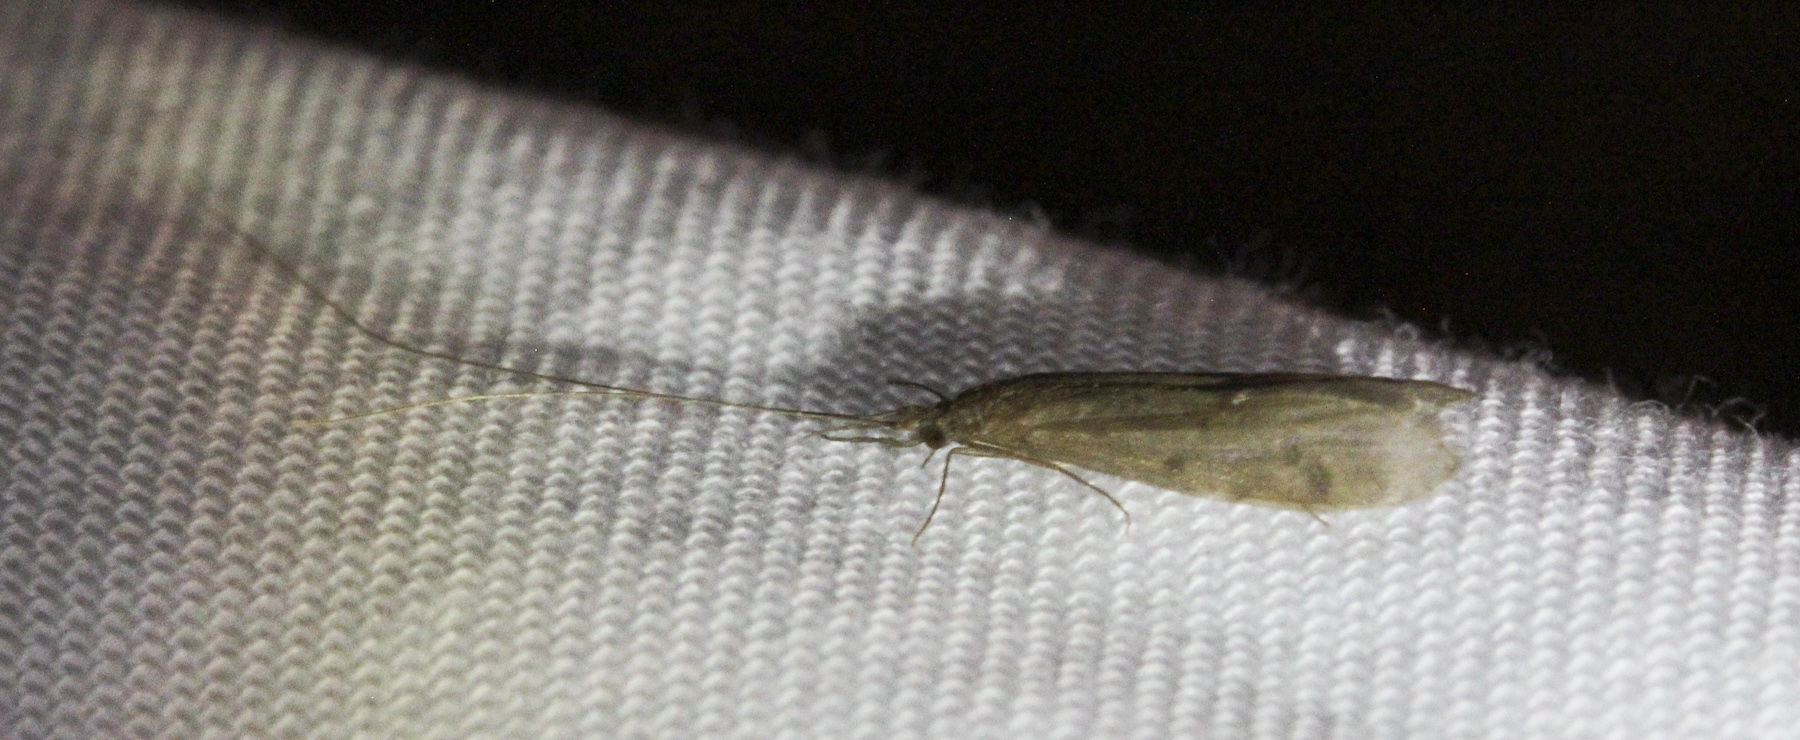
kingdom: Animalia
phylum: Arthropoda
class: Insecta
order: Trichoptera
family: Leptoceridae
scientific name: Leptoceridae
